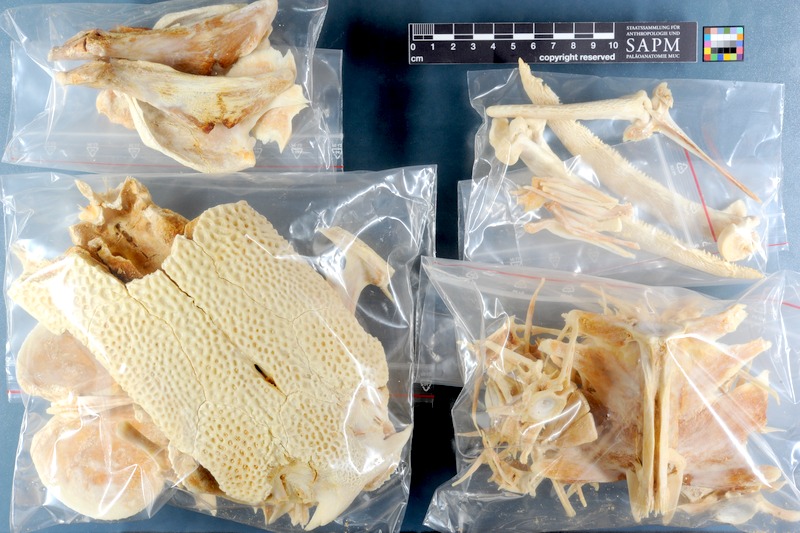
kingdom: Animalia
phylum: Chordata
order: Siluriformes
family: Pimelodidae
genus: Phractocephalus
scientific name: Phractocephalus hemioliopterus
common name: Redtail catfish
